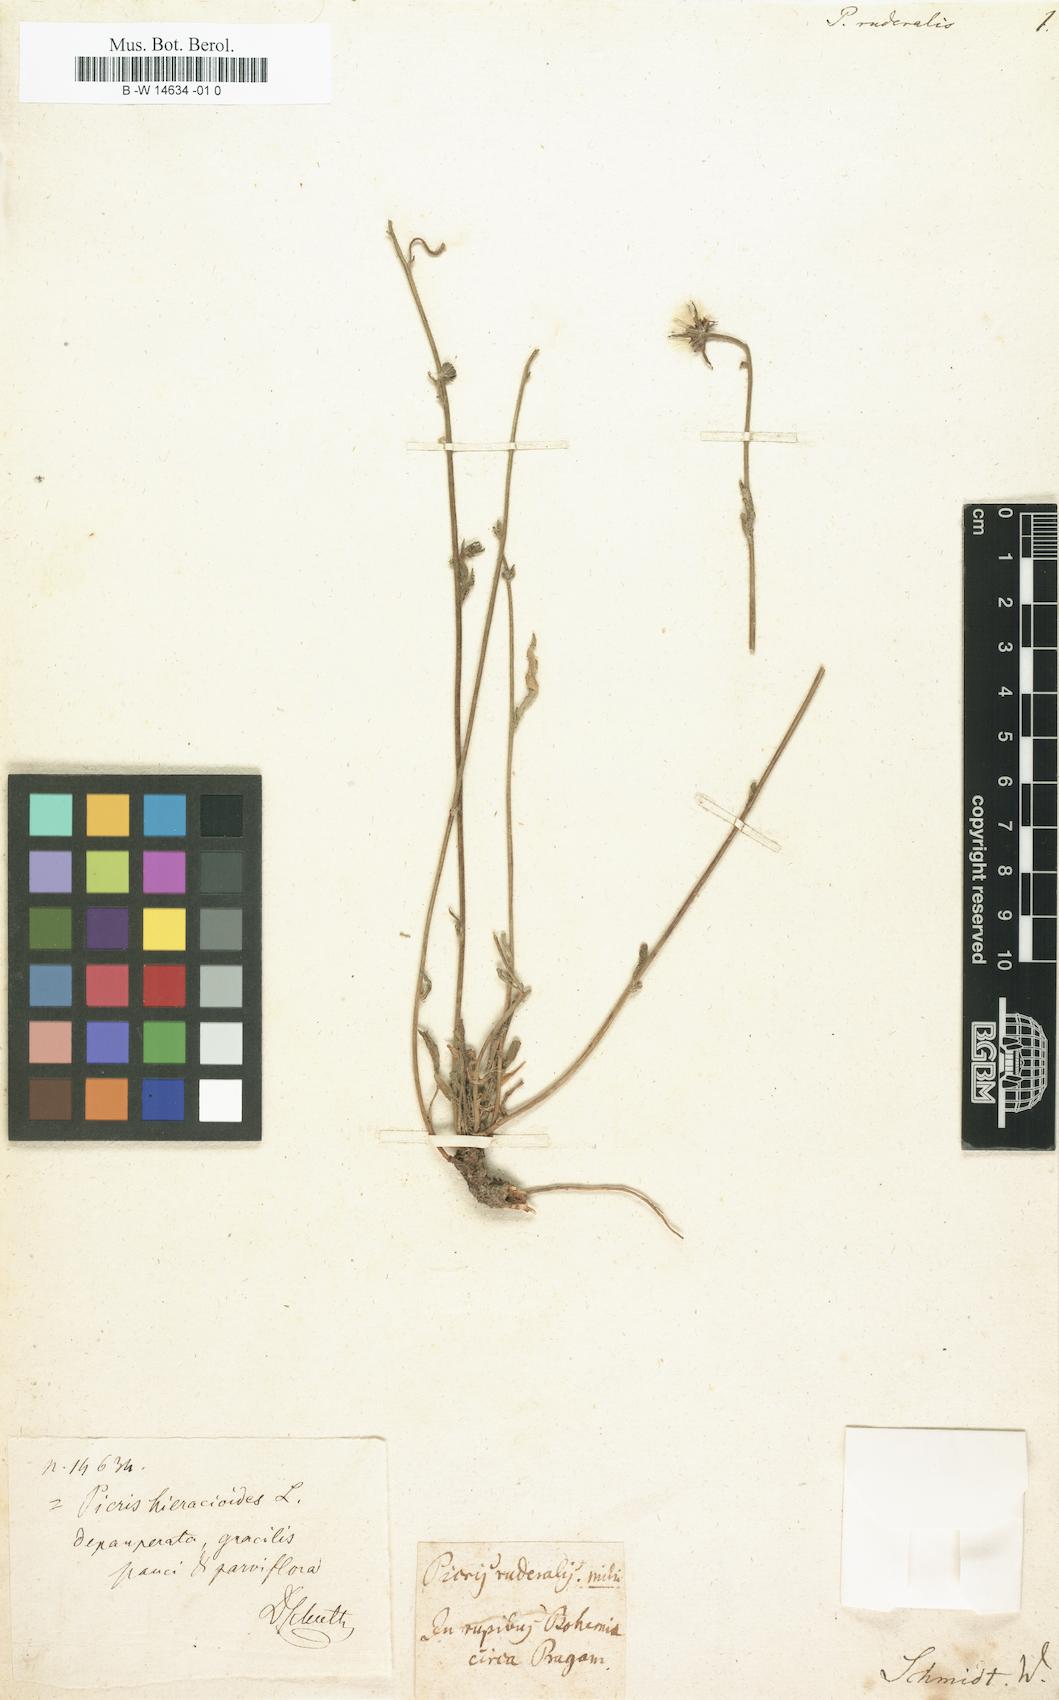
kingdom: Plantae
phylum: Tracheophyta
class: Magnoliopsida
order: Asterales
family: Asteraceae
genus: Picris
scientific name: Picris hieracioides
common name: Hawkweed oxtongue
